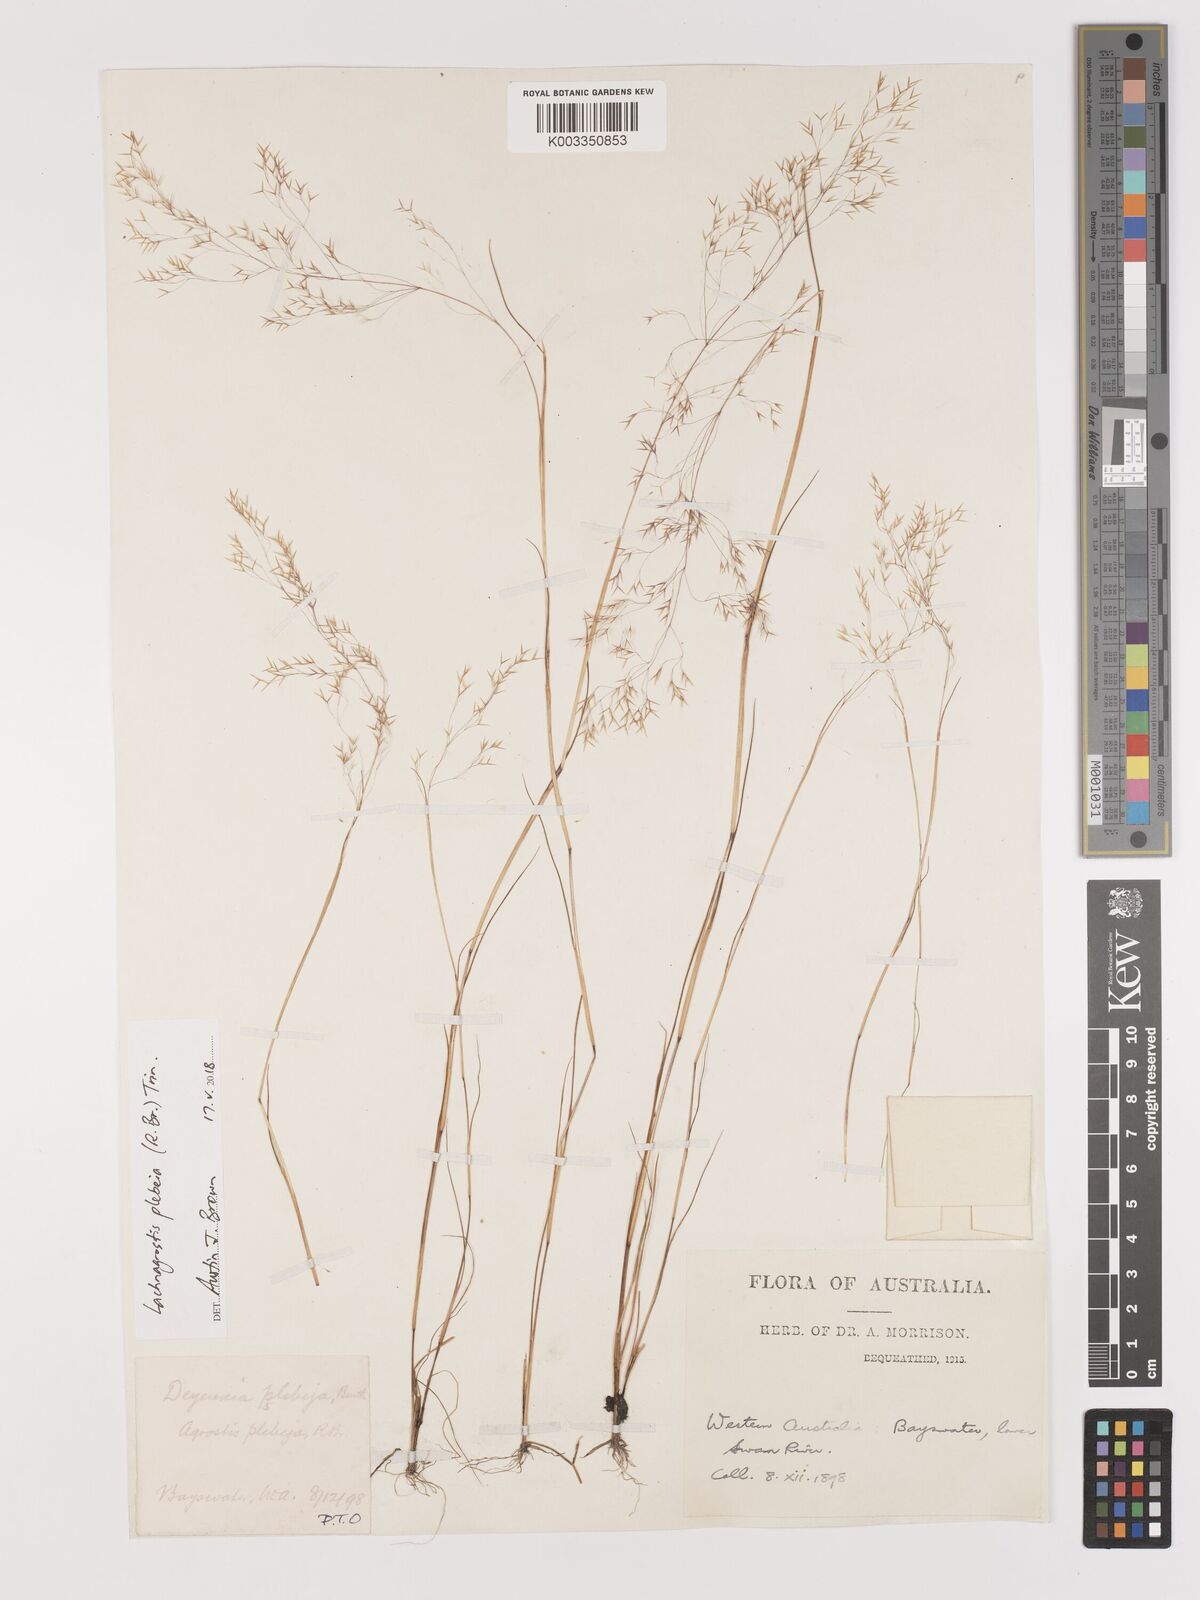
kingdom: Plantae
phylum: Tracheophyta
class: Liliopsida
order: Poales
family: Poaceae
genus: Lachnagrostis
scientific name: Lachnagrostis plebeia
